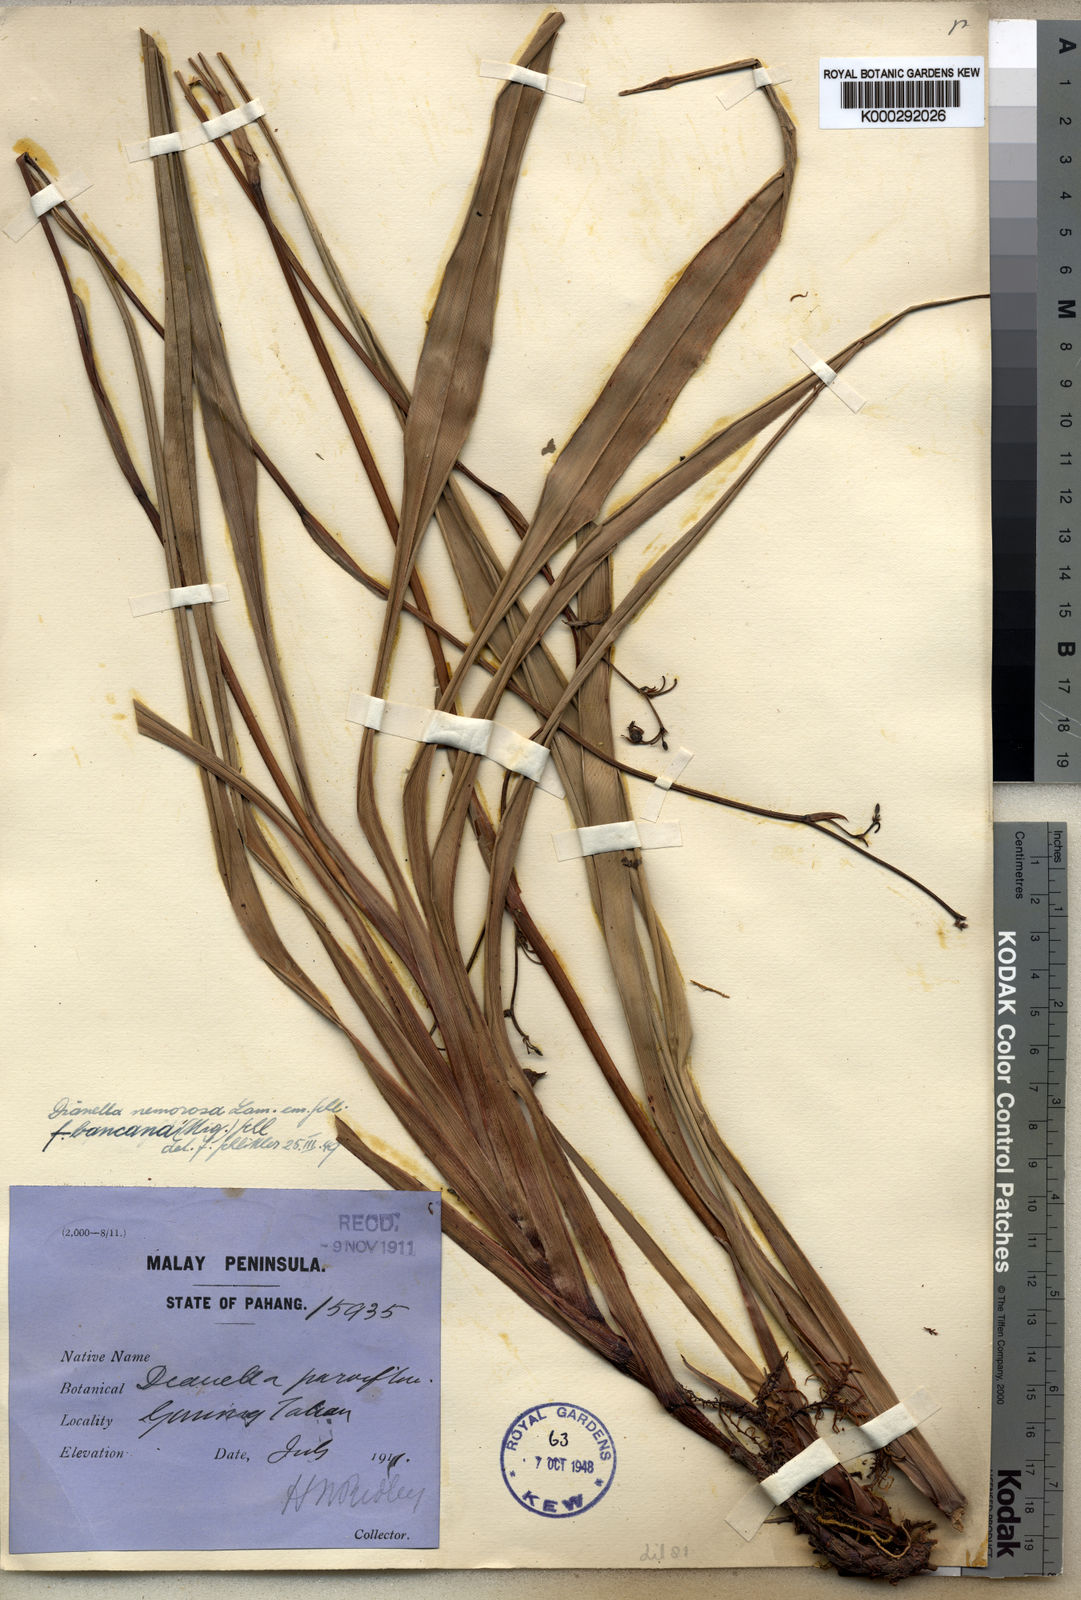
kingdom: Plantae
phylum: Tracheophyta
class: Liliopsida
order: Asparagales
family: Asphodelaceae
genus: Dianella
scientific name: Dianella
